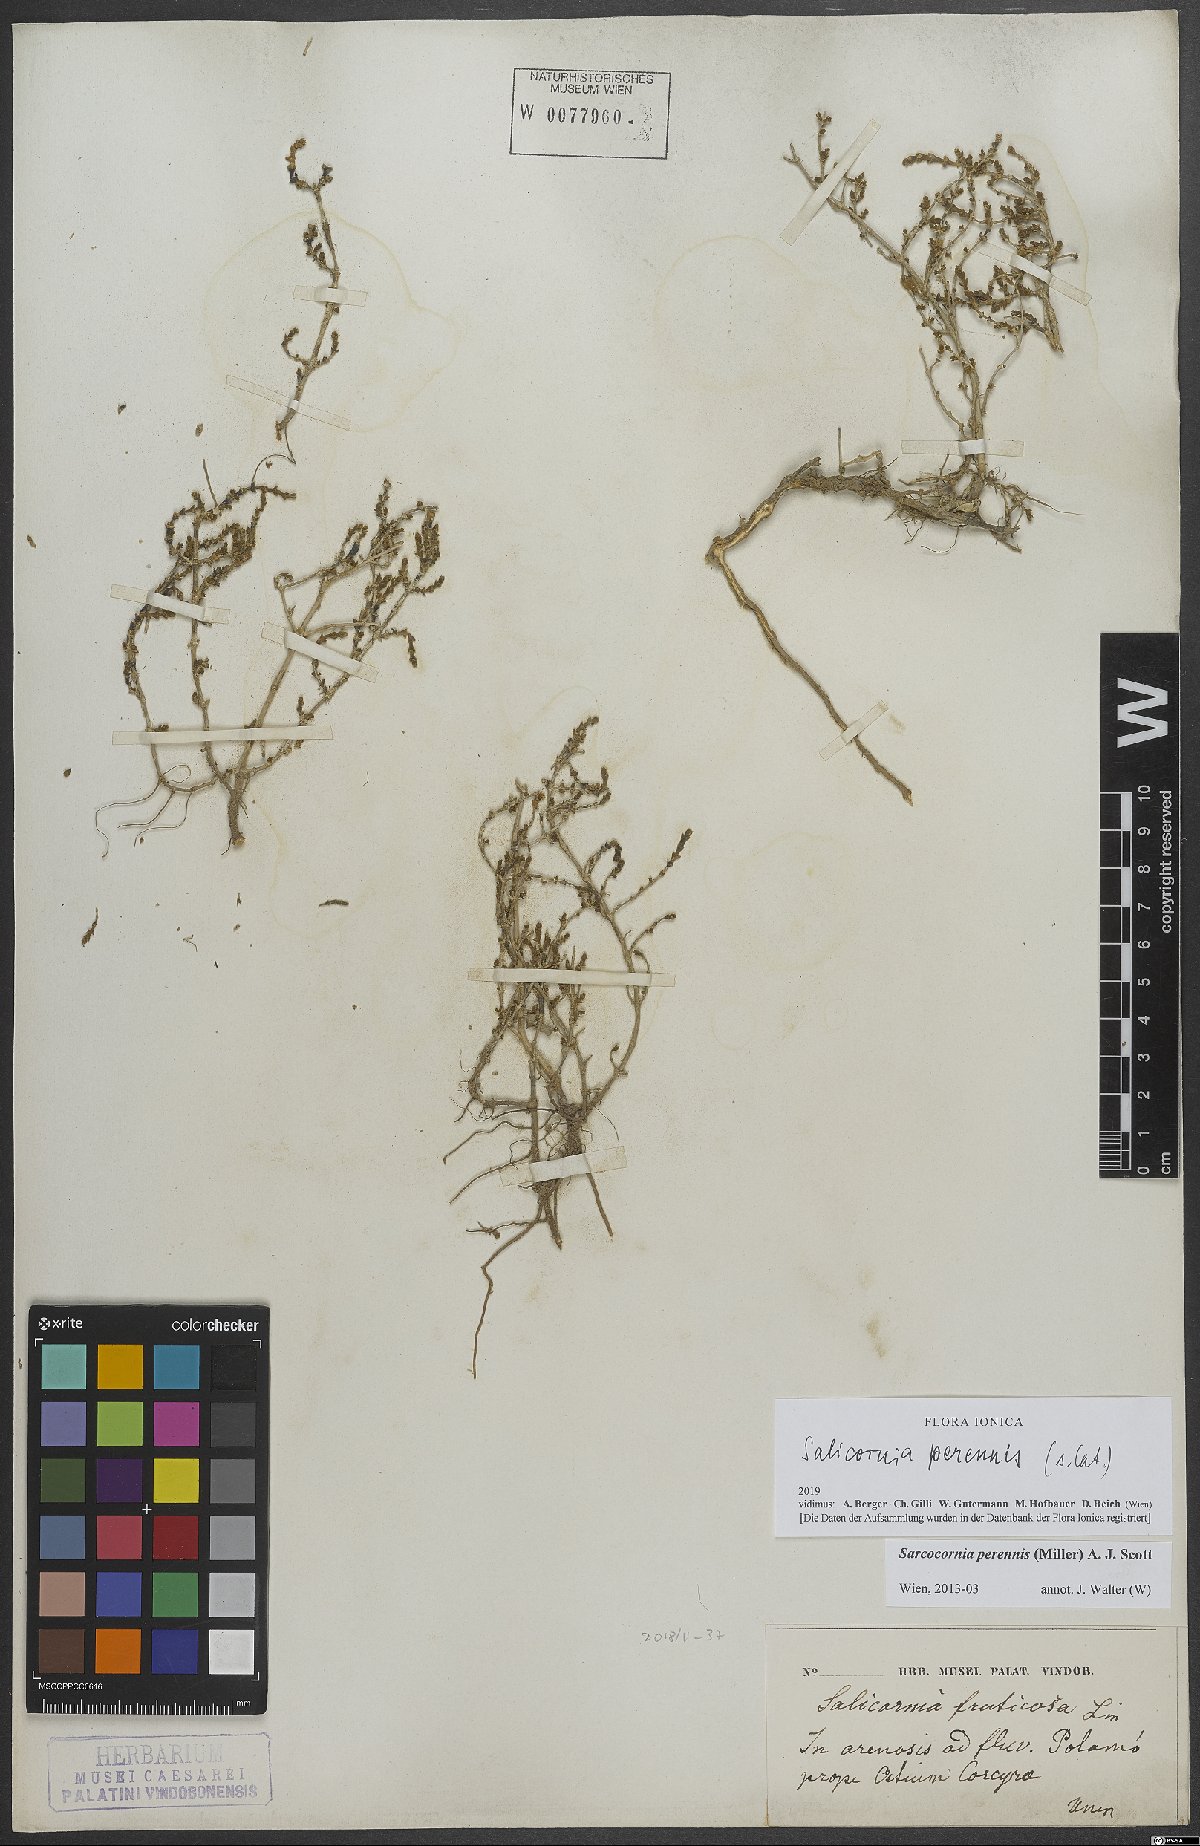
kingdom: Plantae
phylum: Tracheophyta
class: Magnoliopsida
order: Caryophyllales
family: Amaranthaceae
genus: Salicornia
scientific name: Salicornia perennis
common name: Chicken claws
